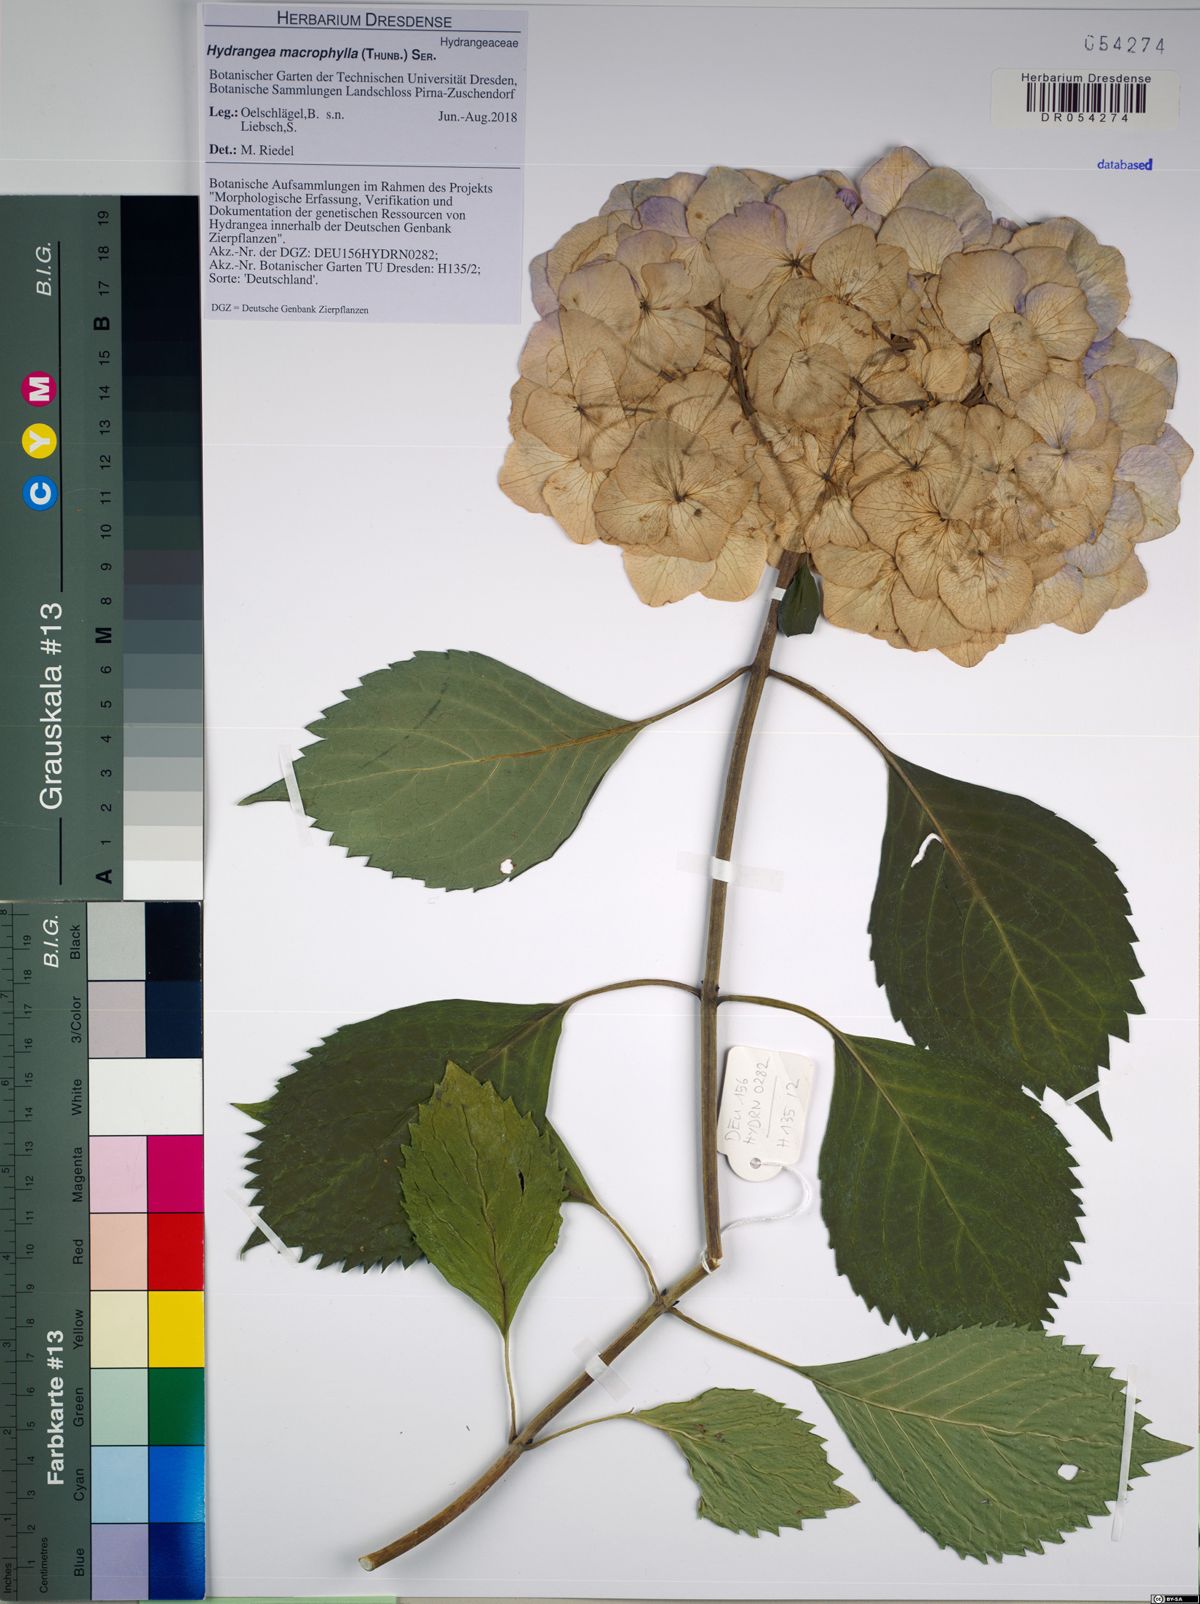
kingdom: Plantae
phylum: Tracheophyta
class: Magnoliopsida
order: Cornales
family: Hydrangeaceae
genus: Hydrangea
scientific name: Hydrangea macrophylla
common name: Hydrangea
